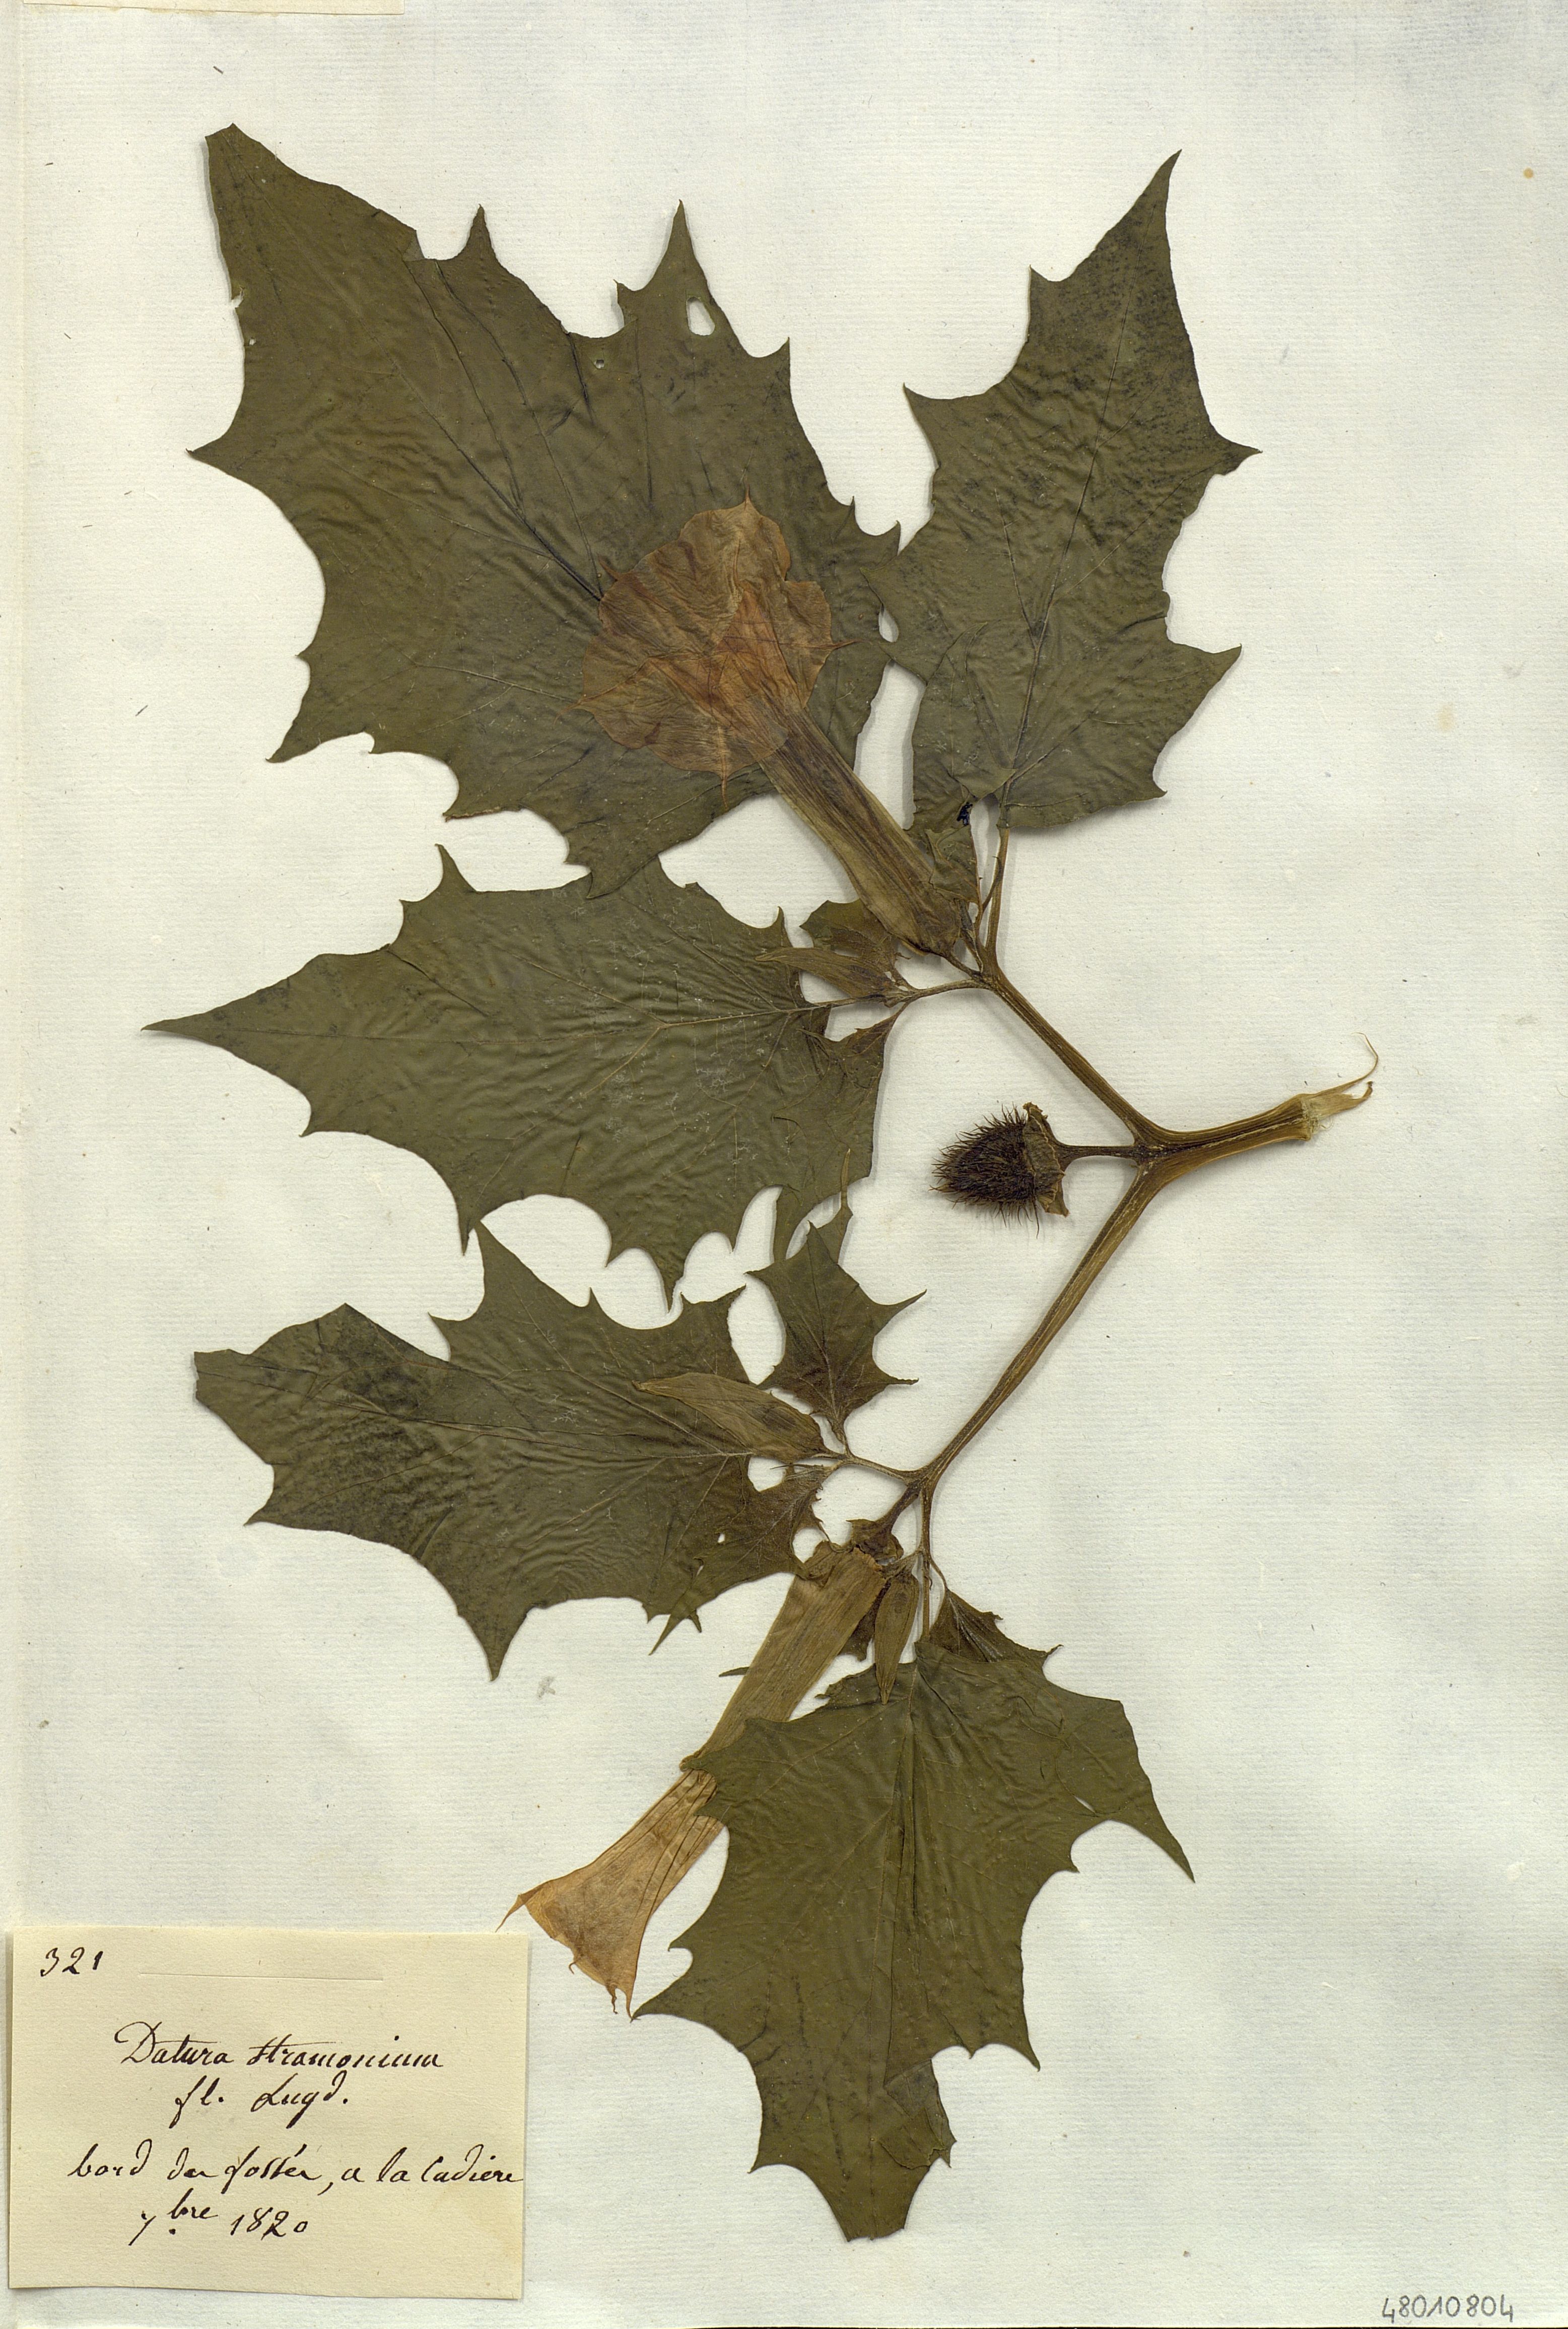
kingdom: Plantae
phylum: Tracheophyta
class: Magnoliopsida
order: Solanales
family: Solanaceae
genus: Datura
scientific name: Datura stramonium
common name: Thorn-apple
